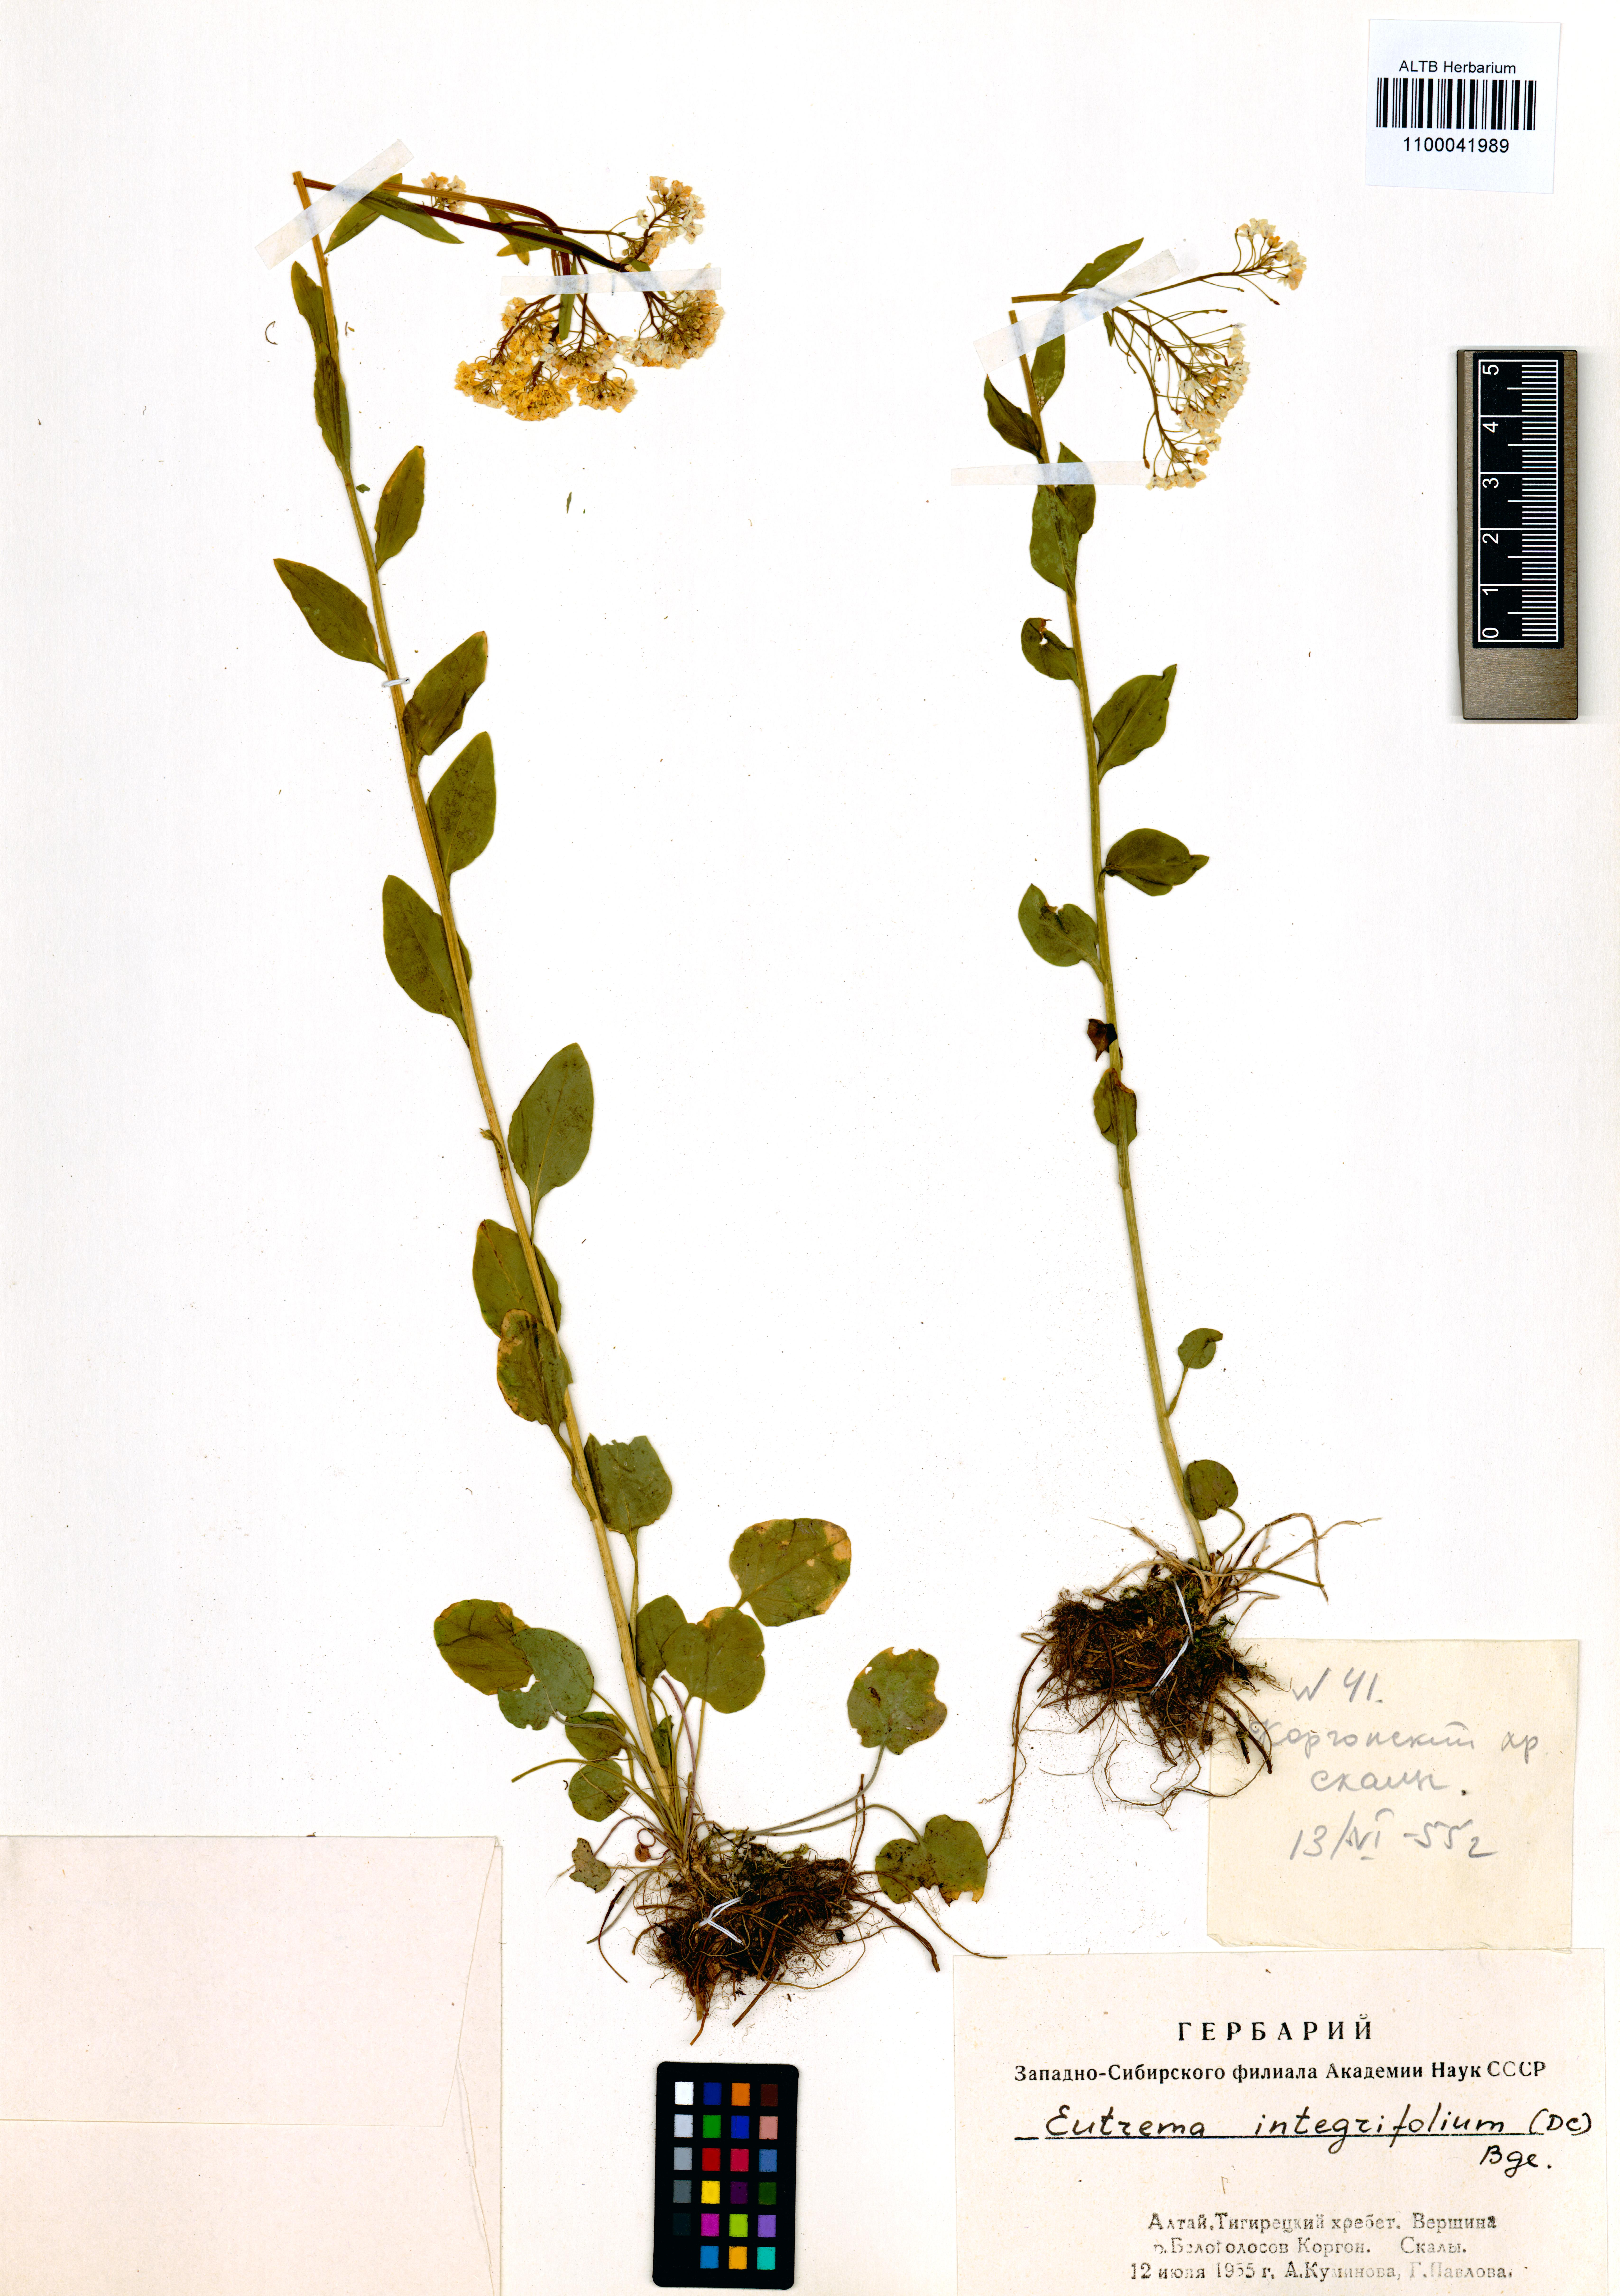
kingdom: Plantae
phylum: Tracheophyta
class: Magnoliopsida
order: Brassicales
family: Brassicaceae
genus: Eutrema
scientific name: Eutrema integrifolium
